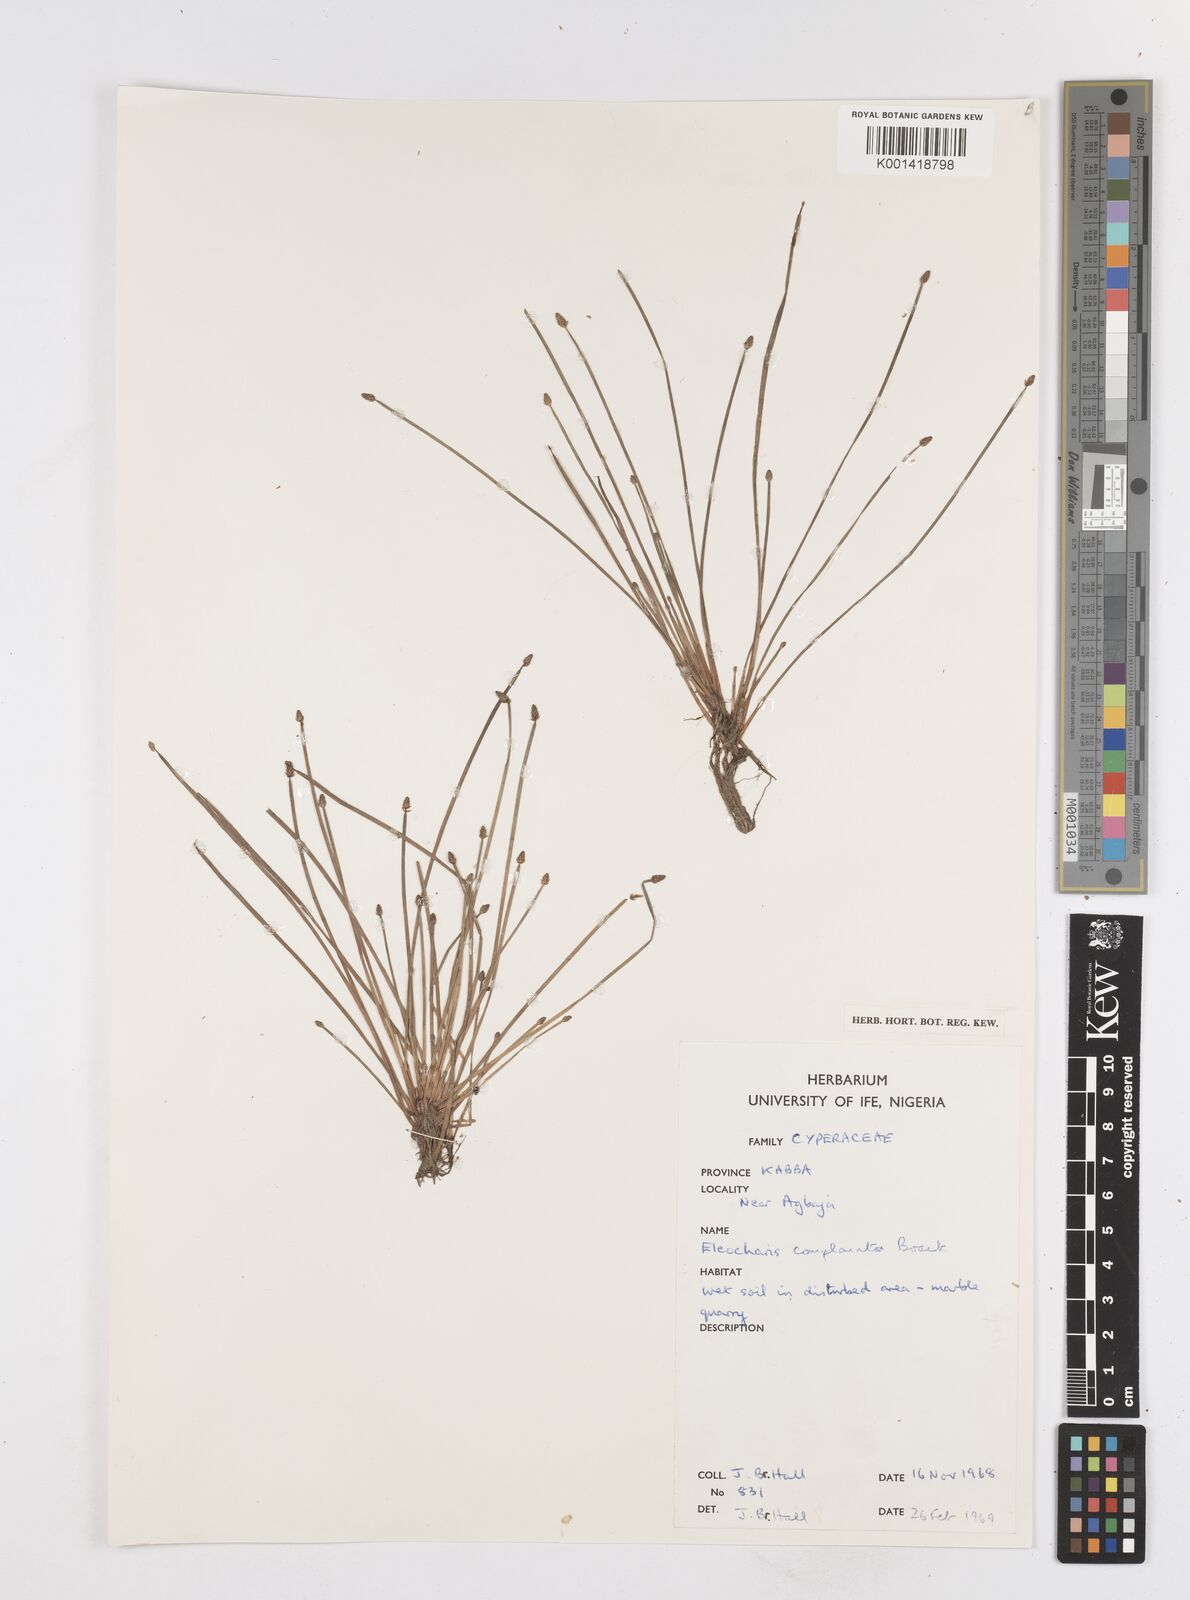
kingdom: Plantae
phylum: Tracheophyta
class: Liliopsida
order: Poales
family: Cyperaceae
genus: Eleocharis
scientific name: Eleocharis complanata
